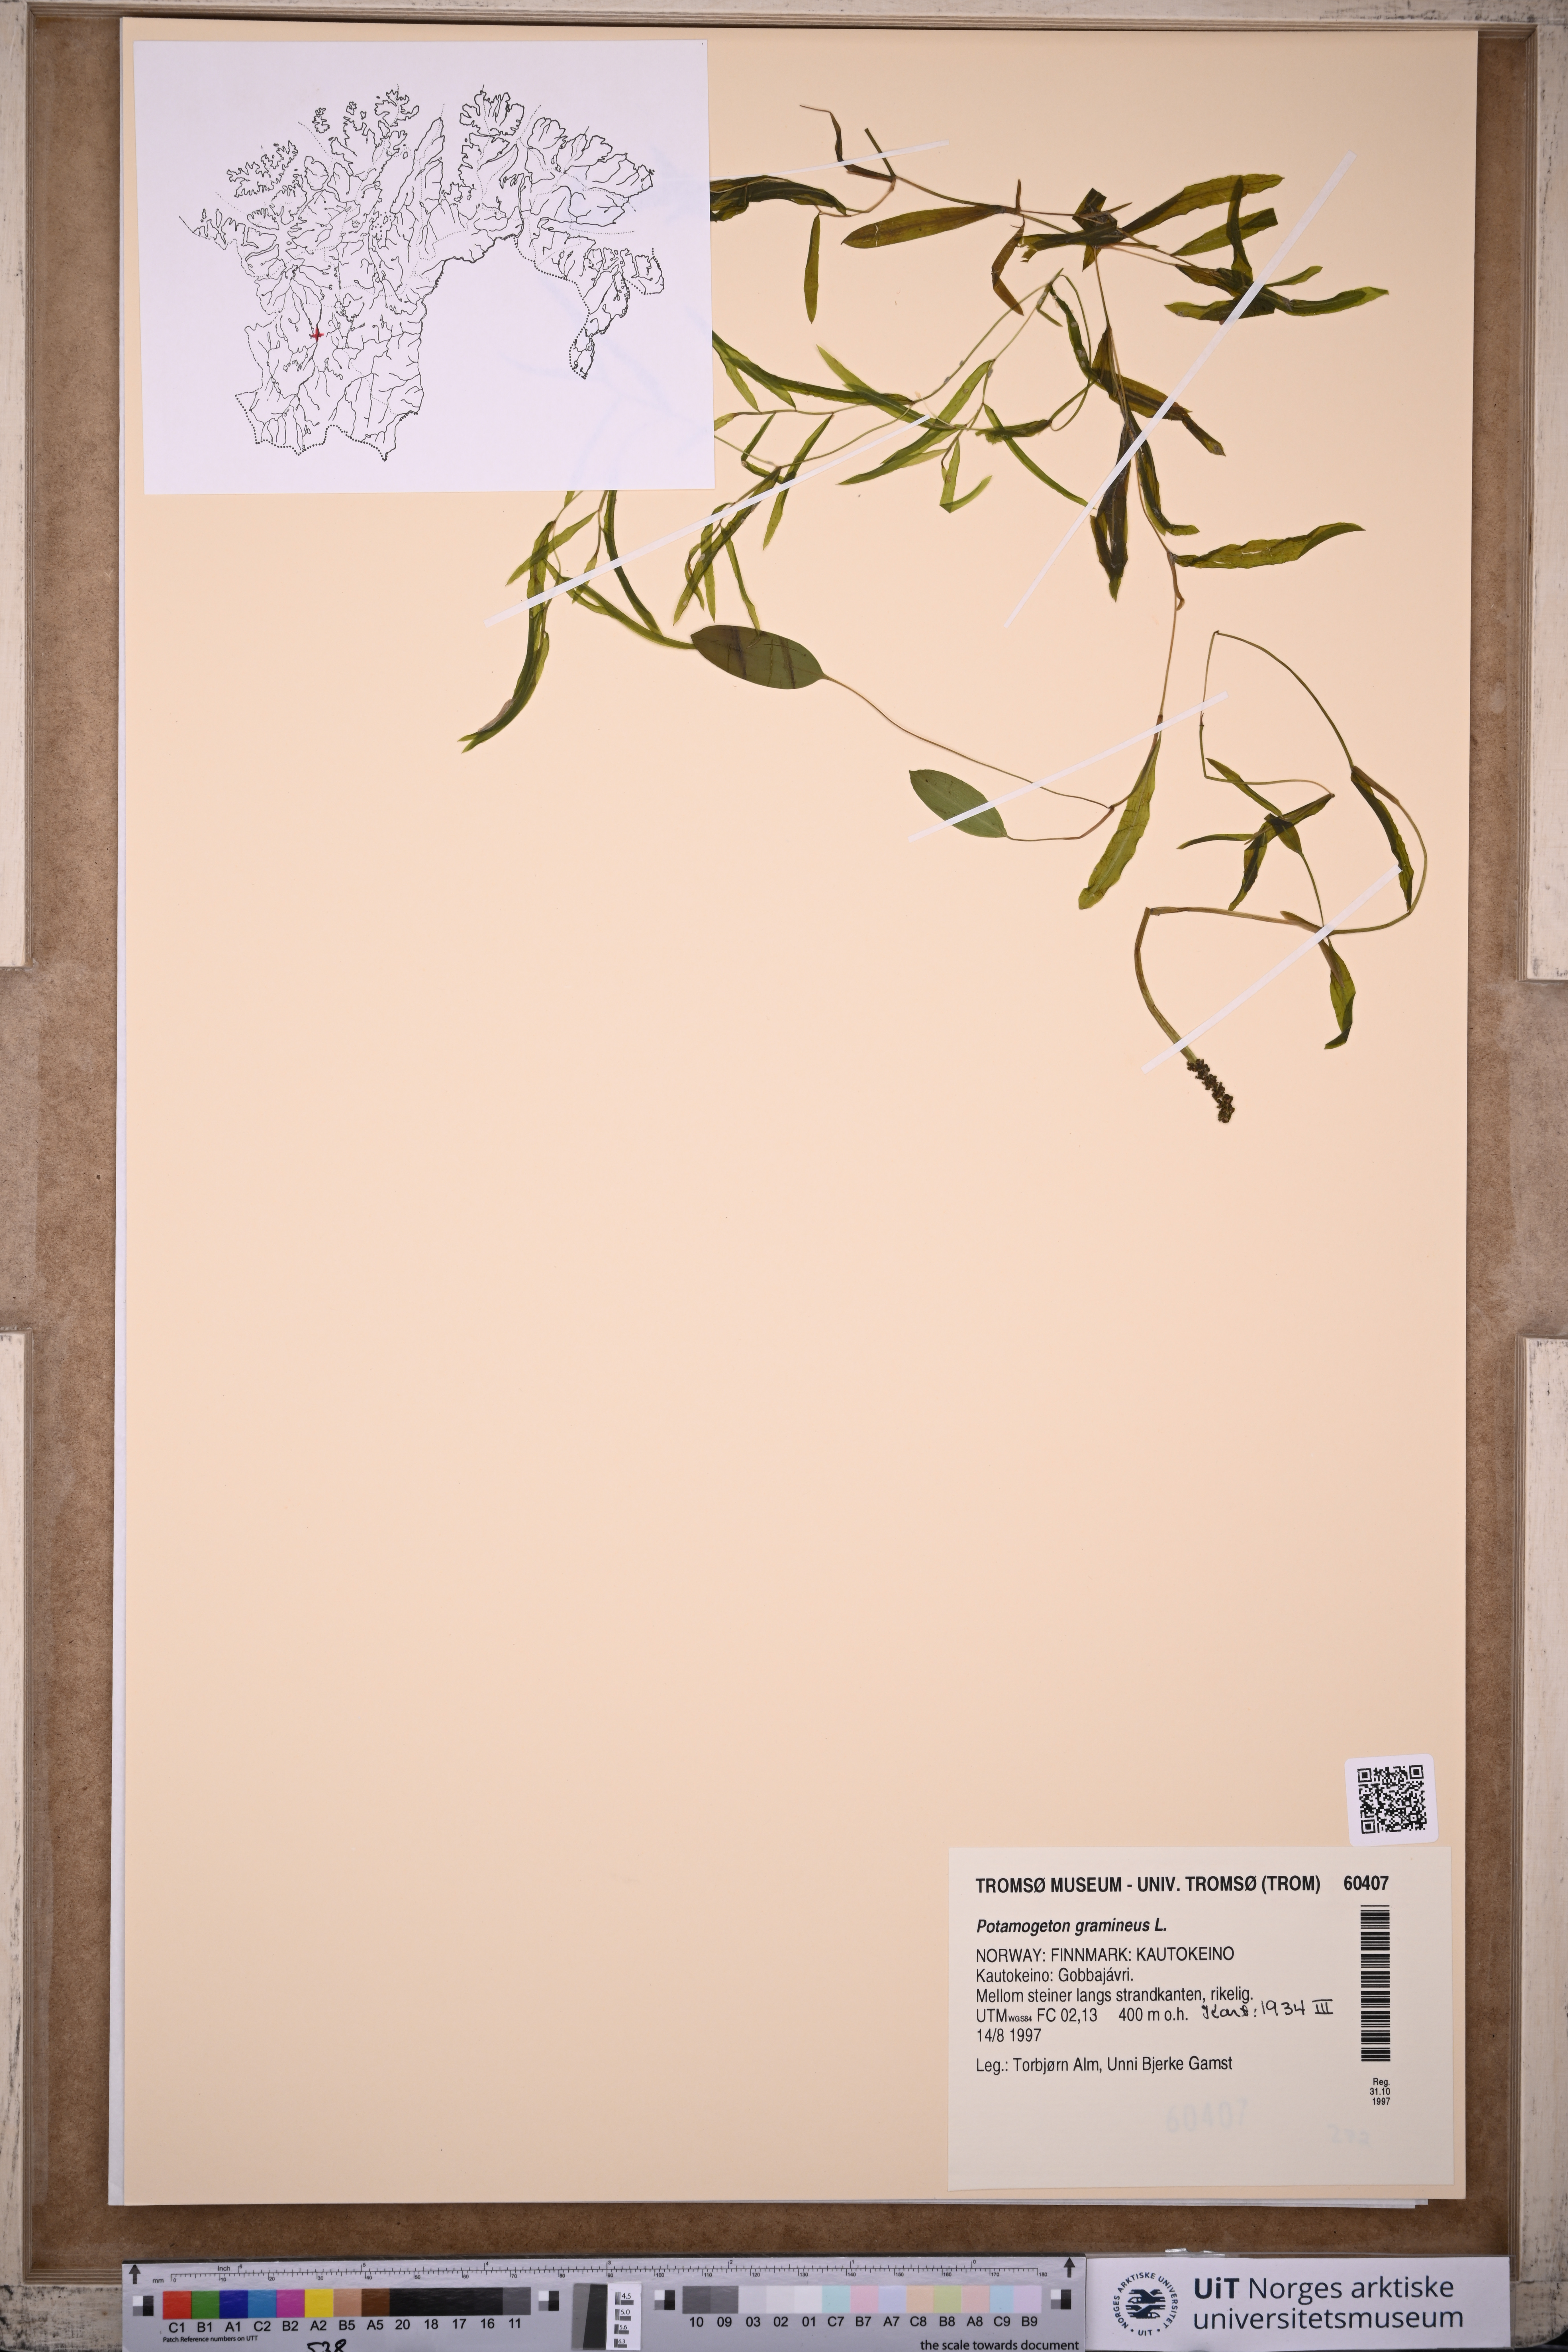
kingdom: Plantae
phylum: Tracheophyta
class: Liliopsida
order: Alismatales
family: Potamogetonaceae
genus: Potamogeton
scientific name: Potamogeton gramineus
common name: Various-leaved pondweed
